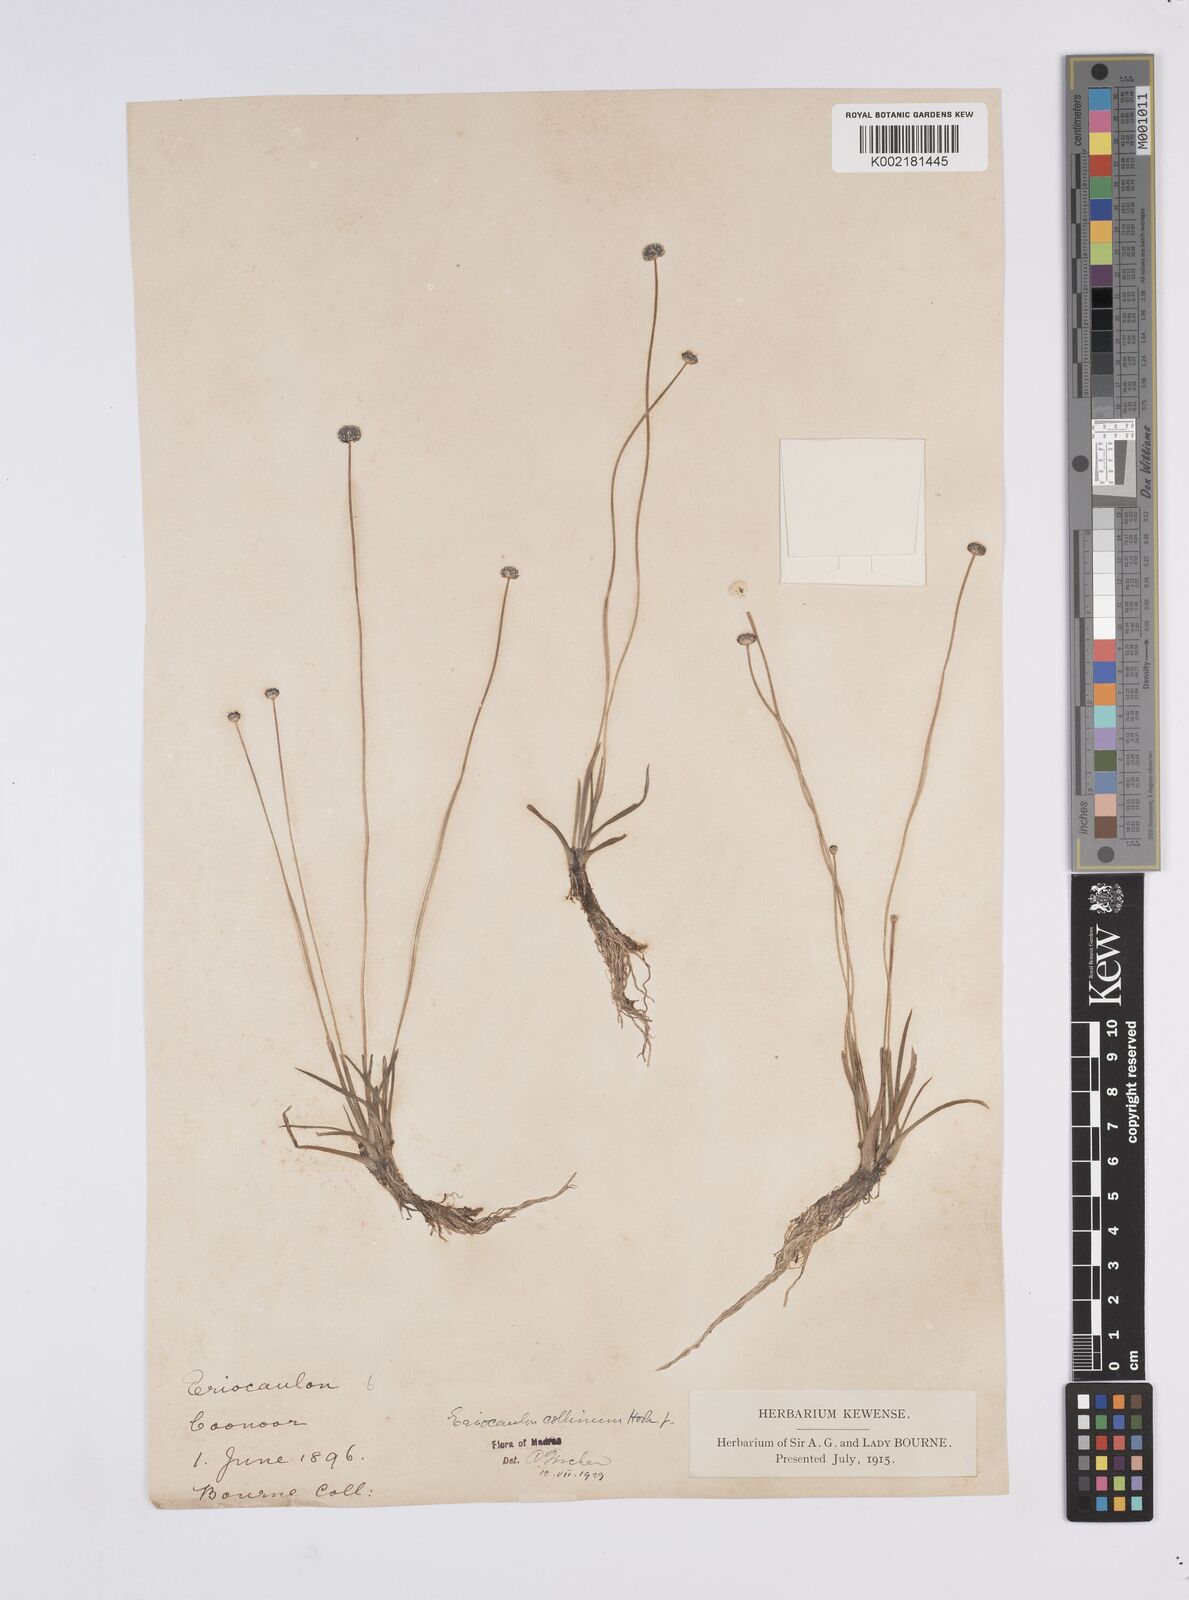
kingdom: Plantae
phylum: Tracheophyta
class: Liliopsida
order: Poales
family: Eriocaulaceae
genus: Eriocaulon
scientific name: Eriocaulon odoratum
